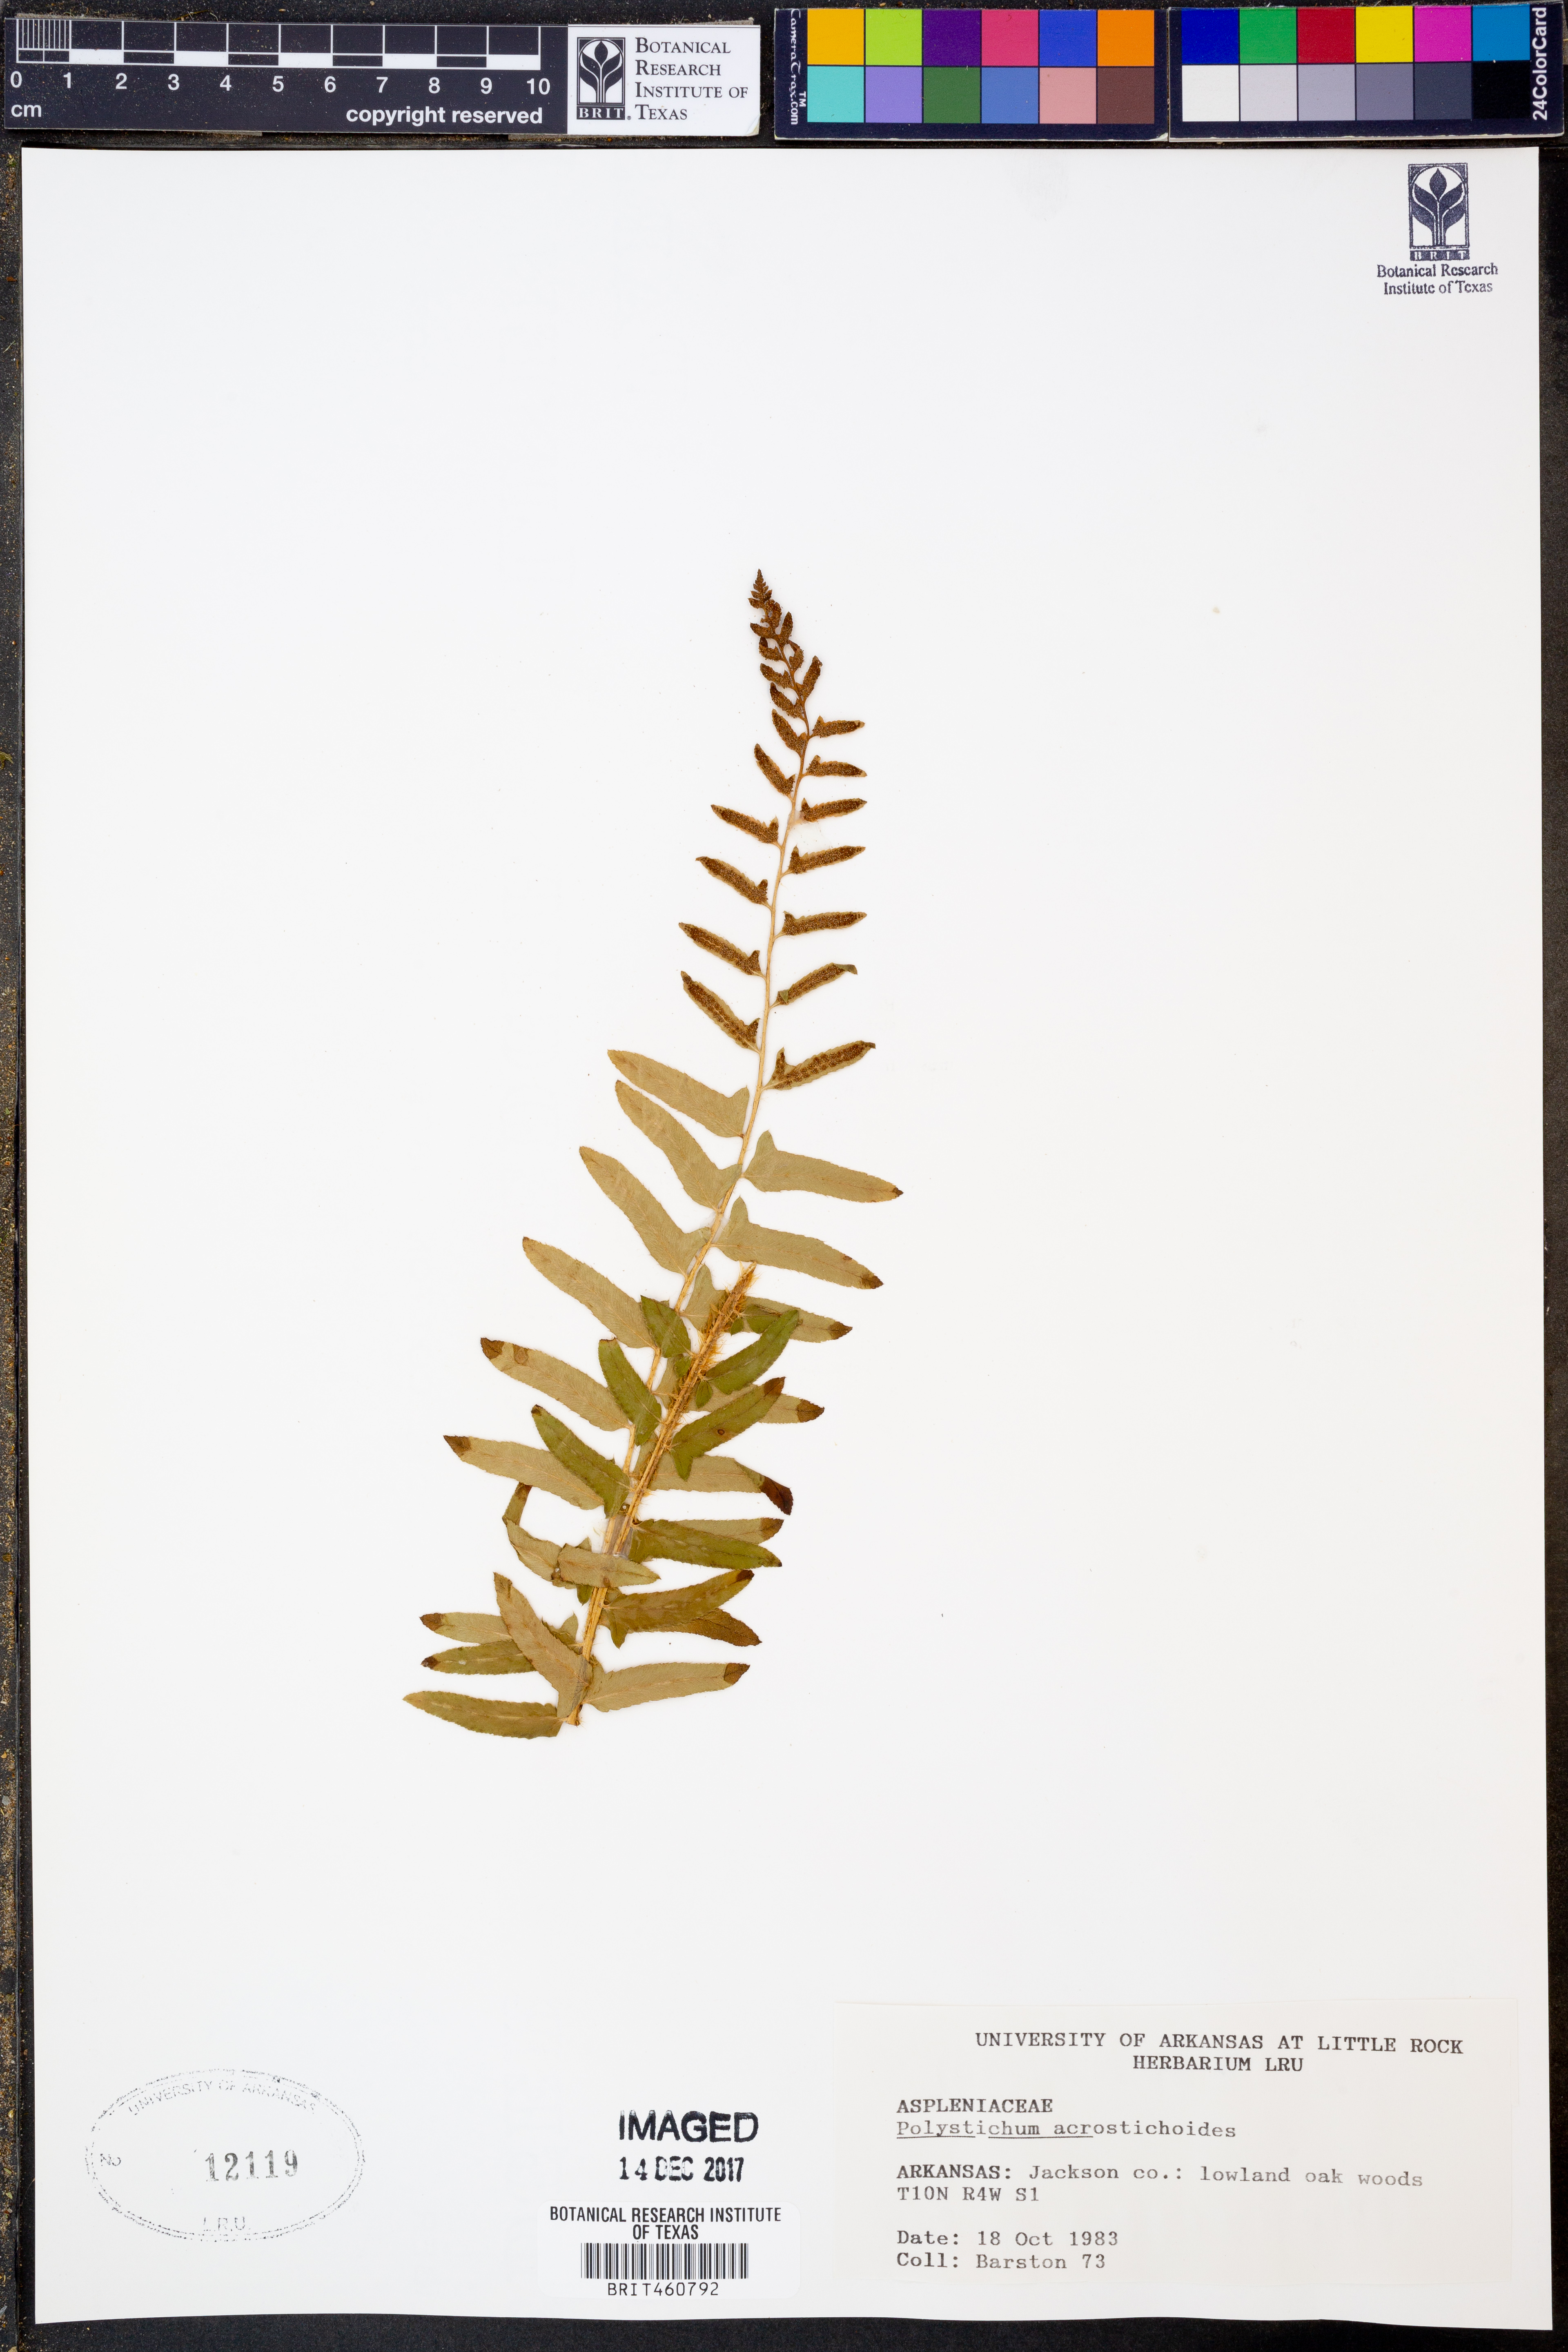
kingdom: Plantae
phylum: Tracheophyta
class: Polypodiopsida
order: Polypodiales
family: Dryopteridaceae
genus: Polystichum
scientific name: Polystichum acrostichoides
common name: Christmas fern
